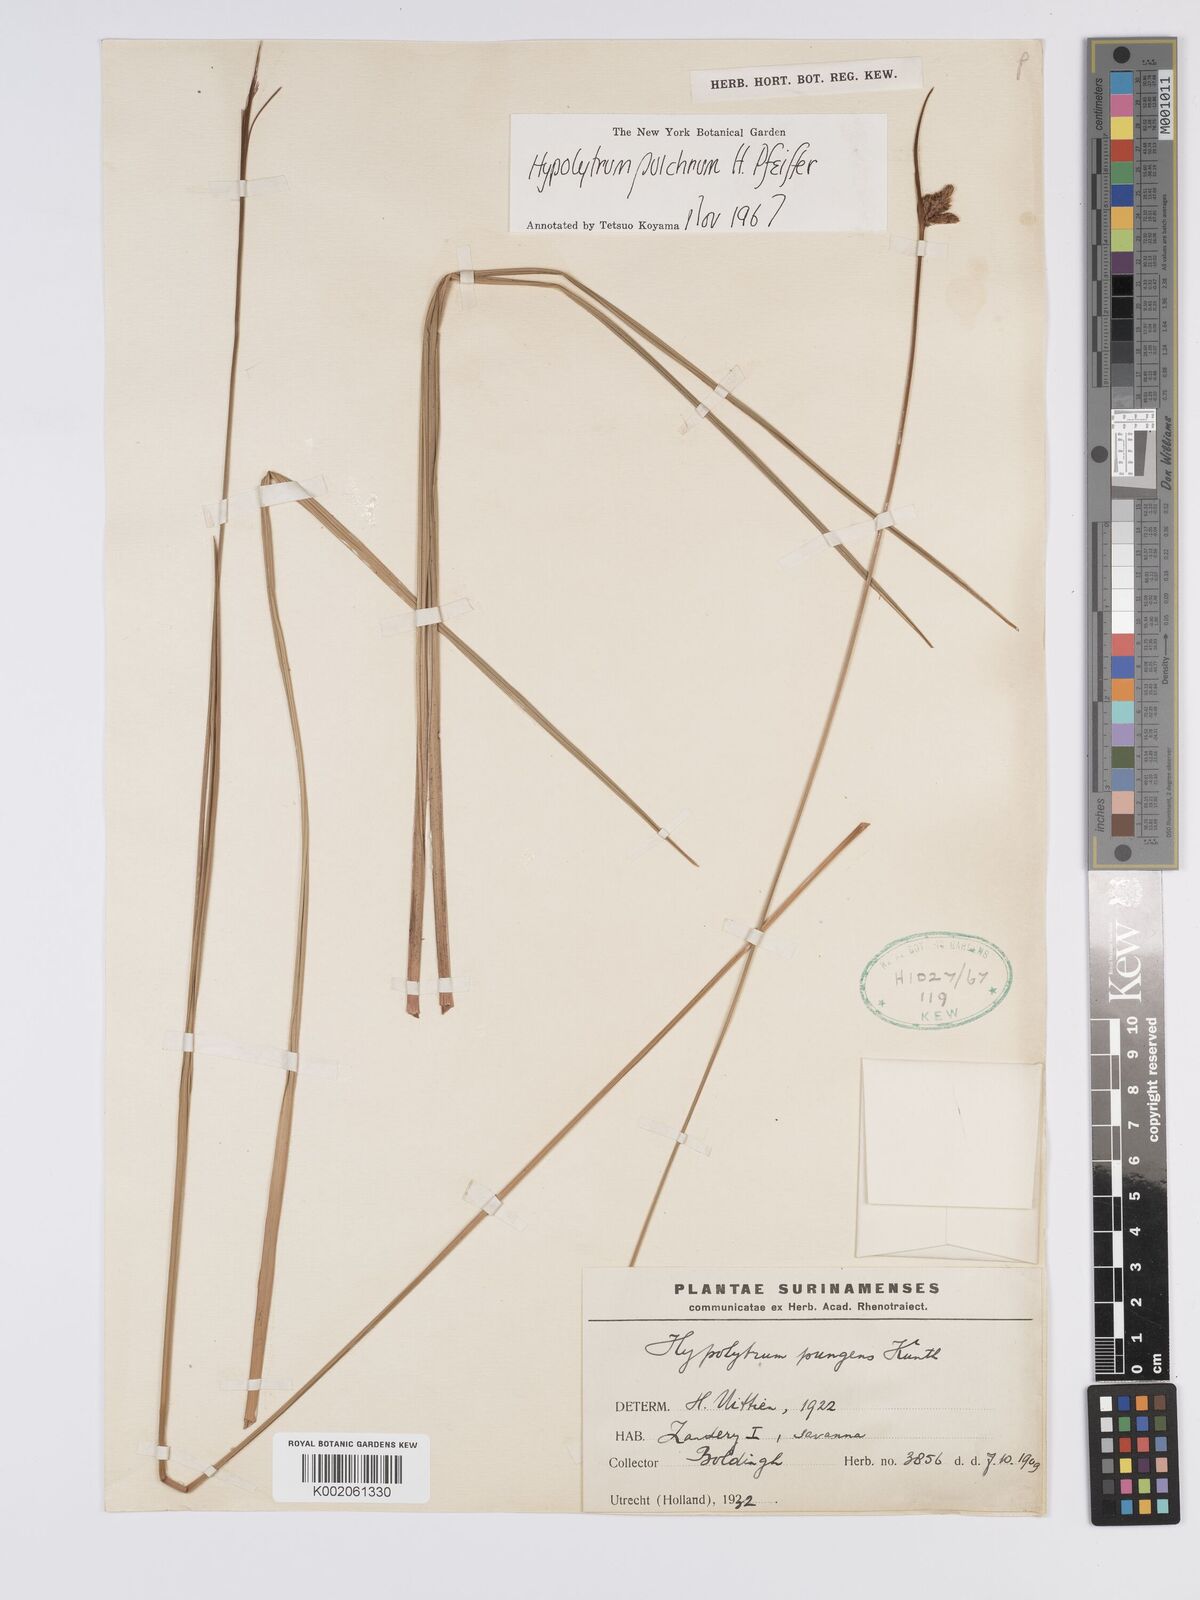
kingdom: Plantae
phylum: Tracheophyta
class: Liliopsida
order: Poales
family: Cyperaceae
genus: Hypolytrum
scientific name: Hypolytrum pulchrum
